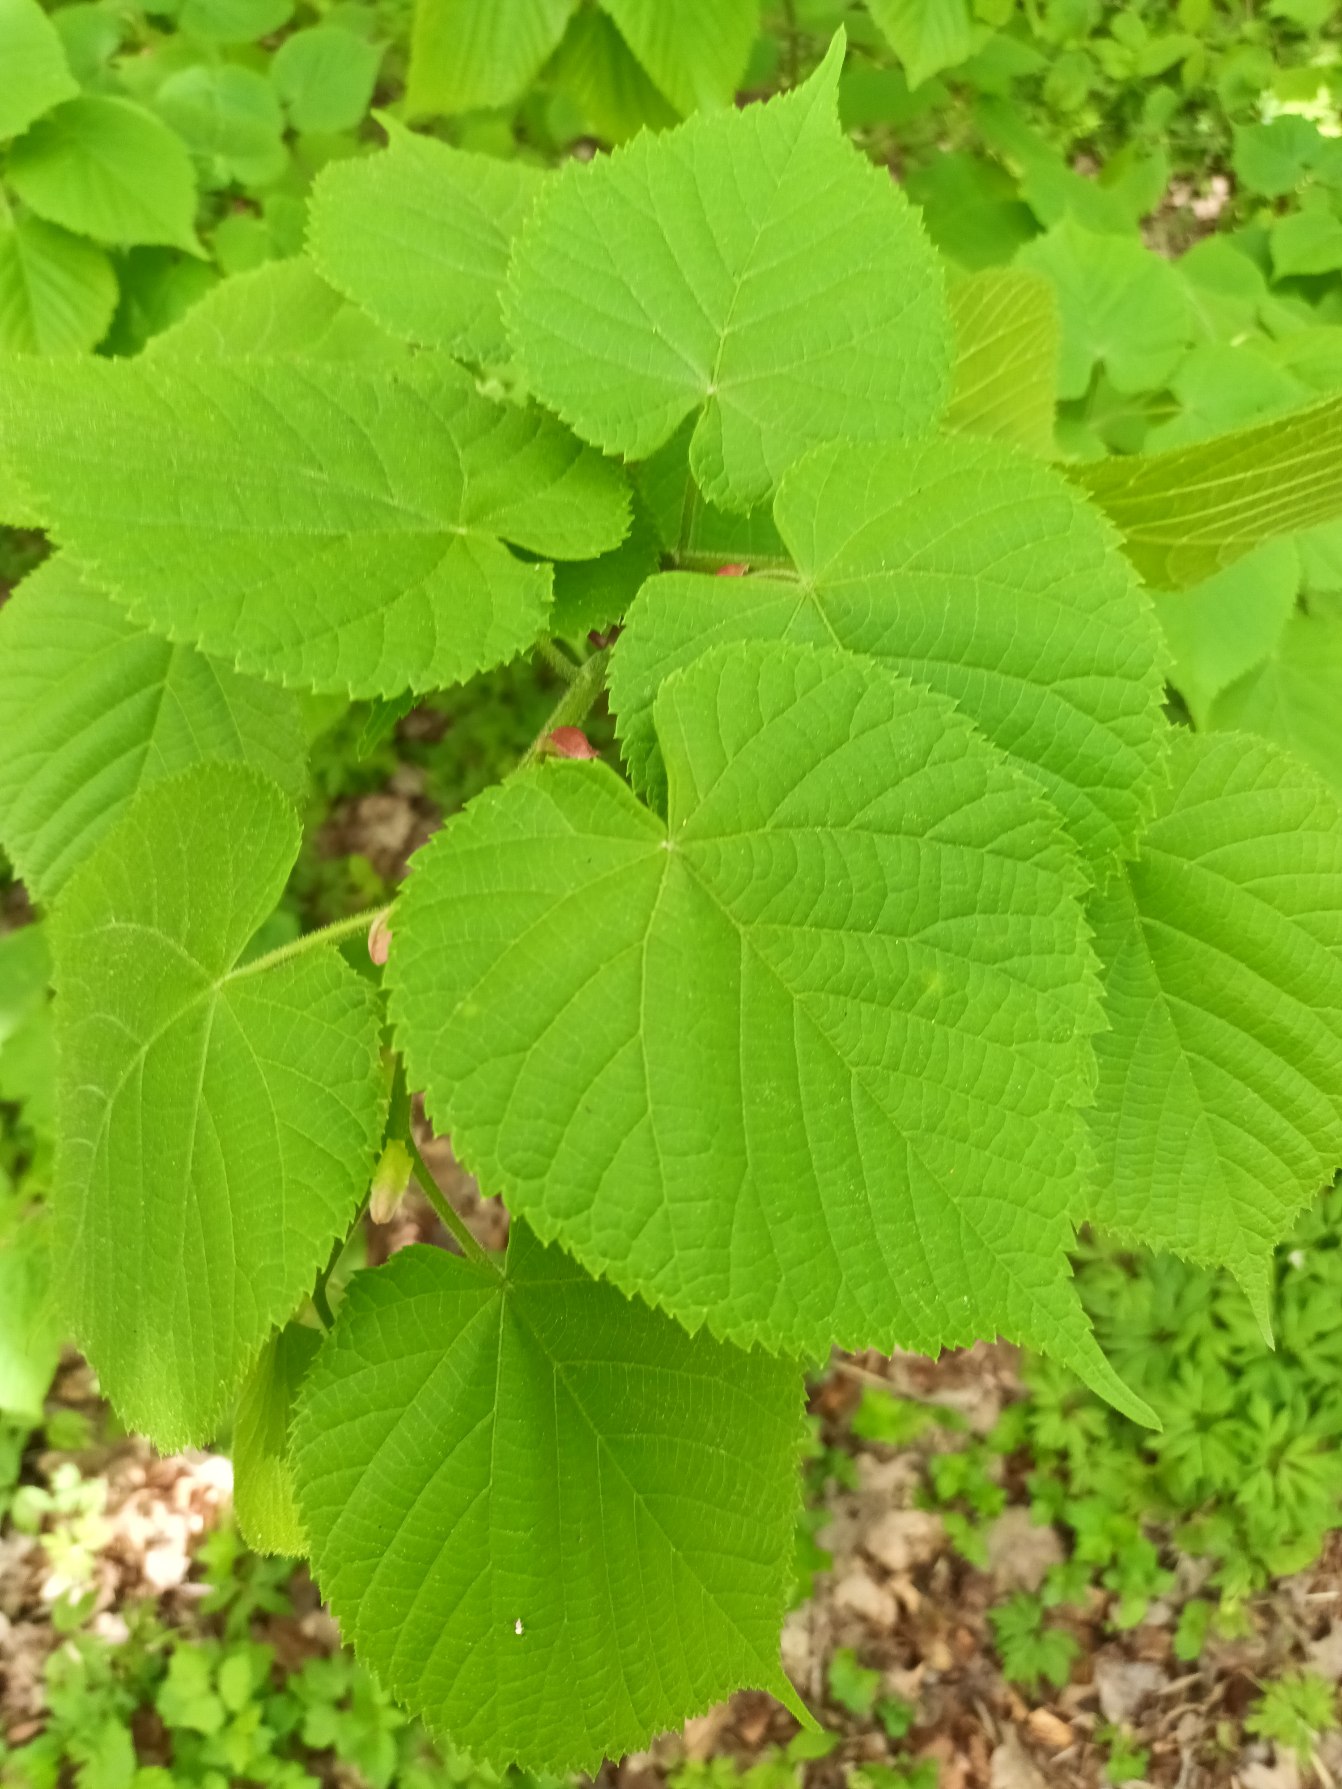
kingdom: Plantae
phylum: Tracheophyta
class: Magnoliopsida
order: Malvales
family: Malvaceae
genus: Tilia
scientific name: Tilia platyphyllos
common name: Storbladet lind
